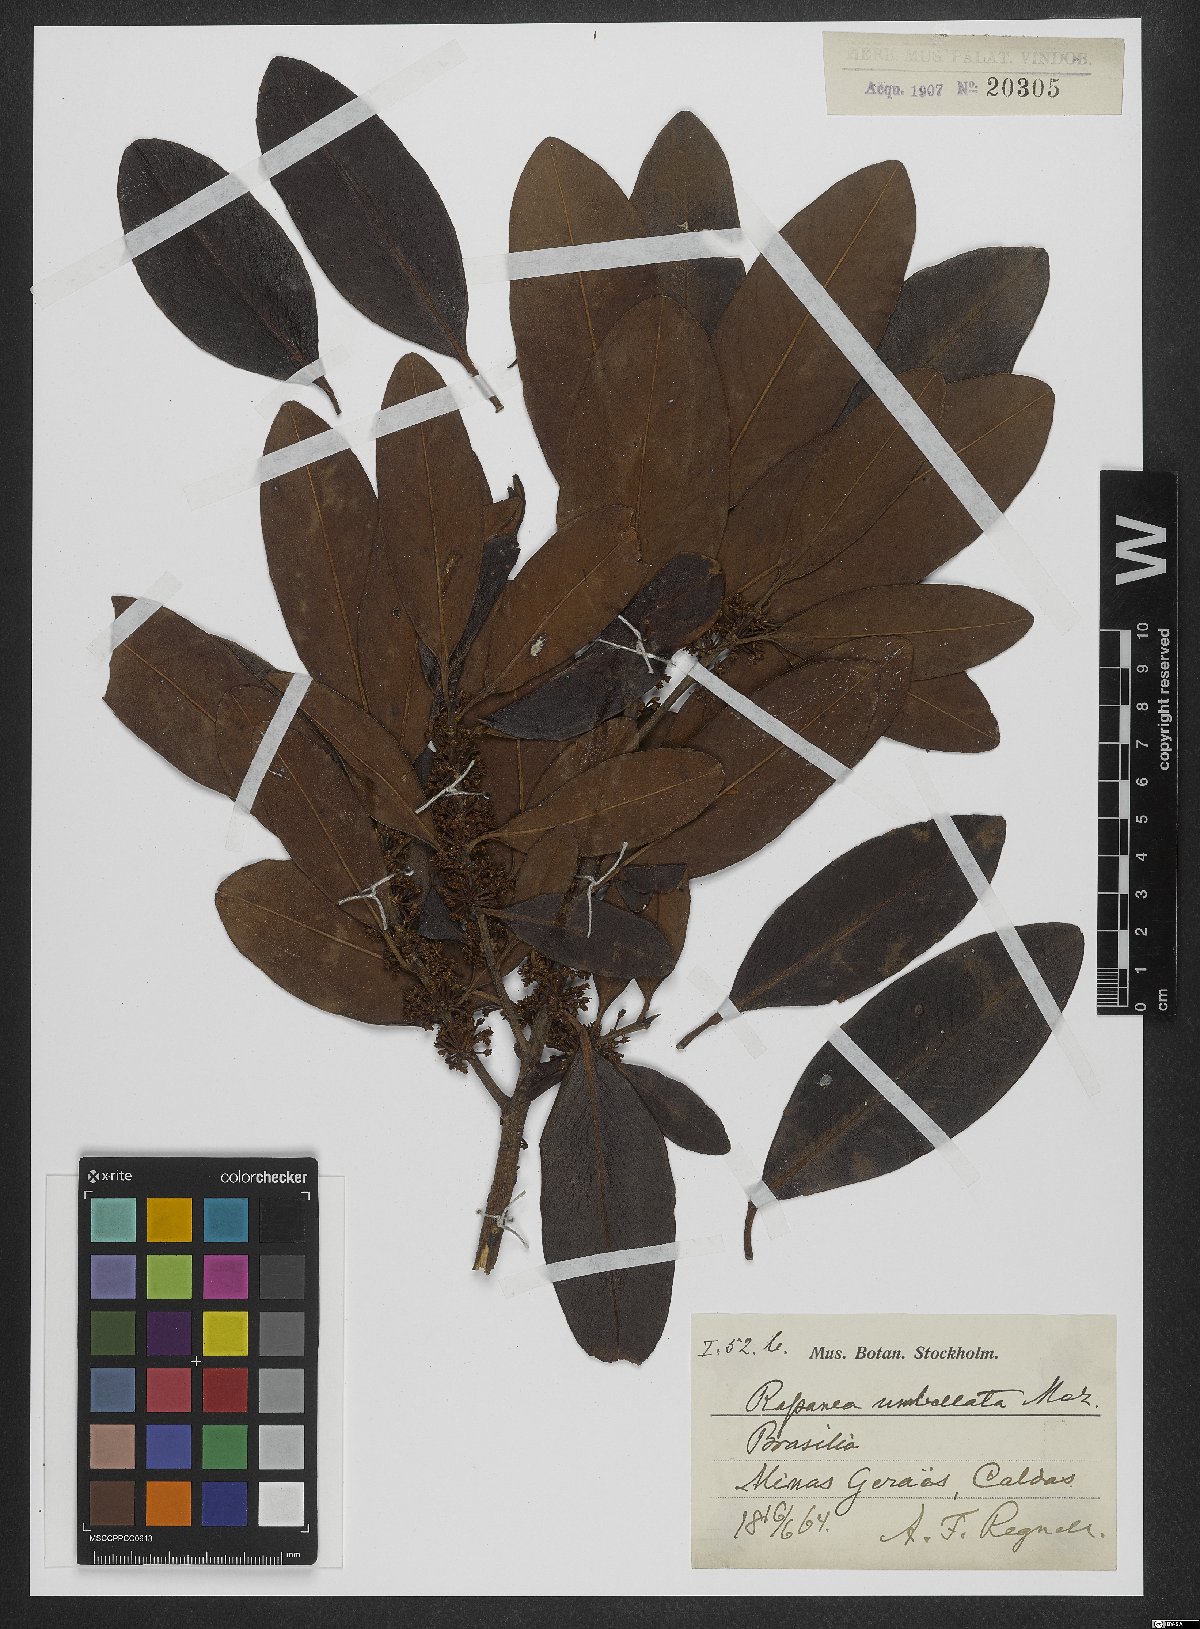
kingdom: Plantae
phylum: Tracheophyta
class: Magnoliopsida
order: Ericales
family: Primulaceae
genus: Myrsine
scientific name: Myrsine umbellata
